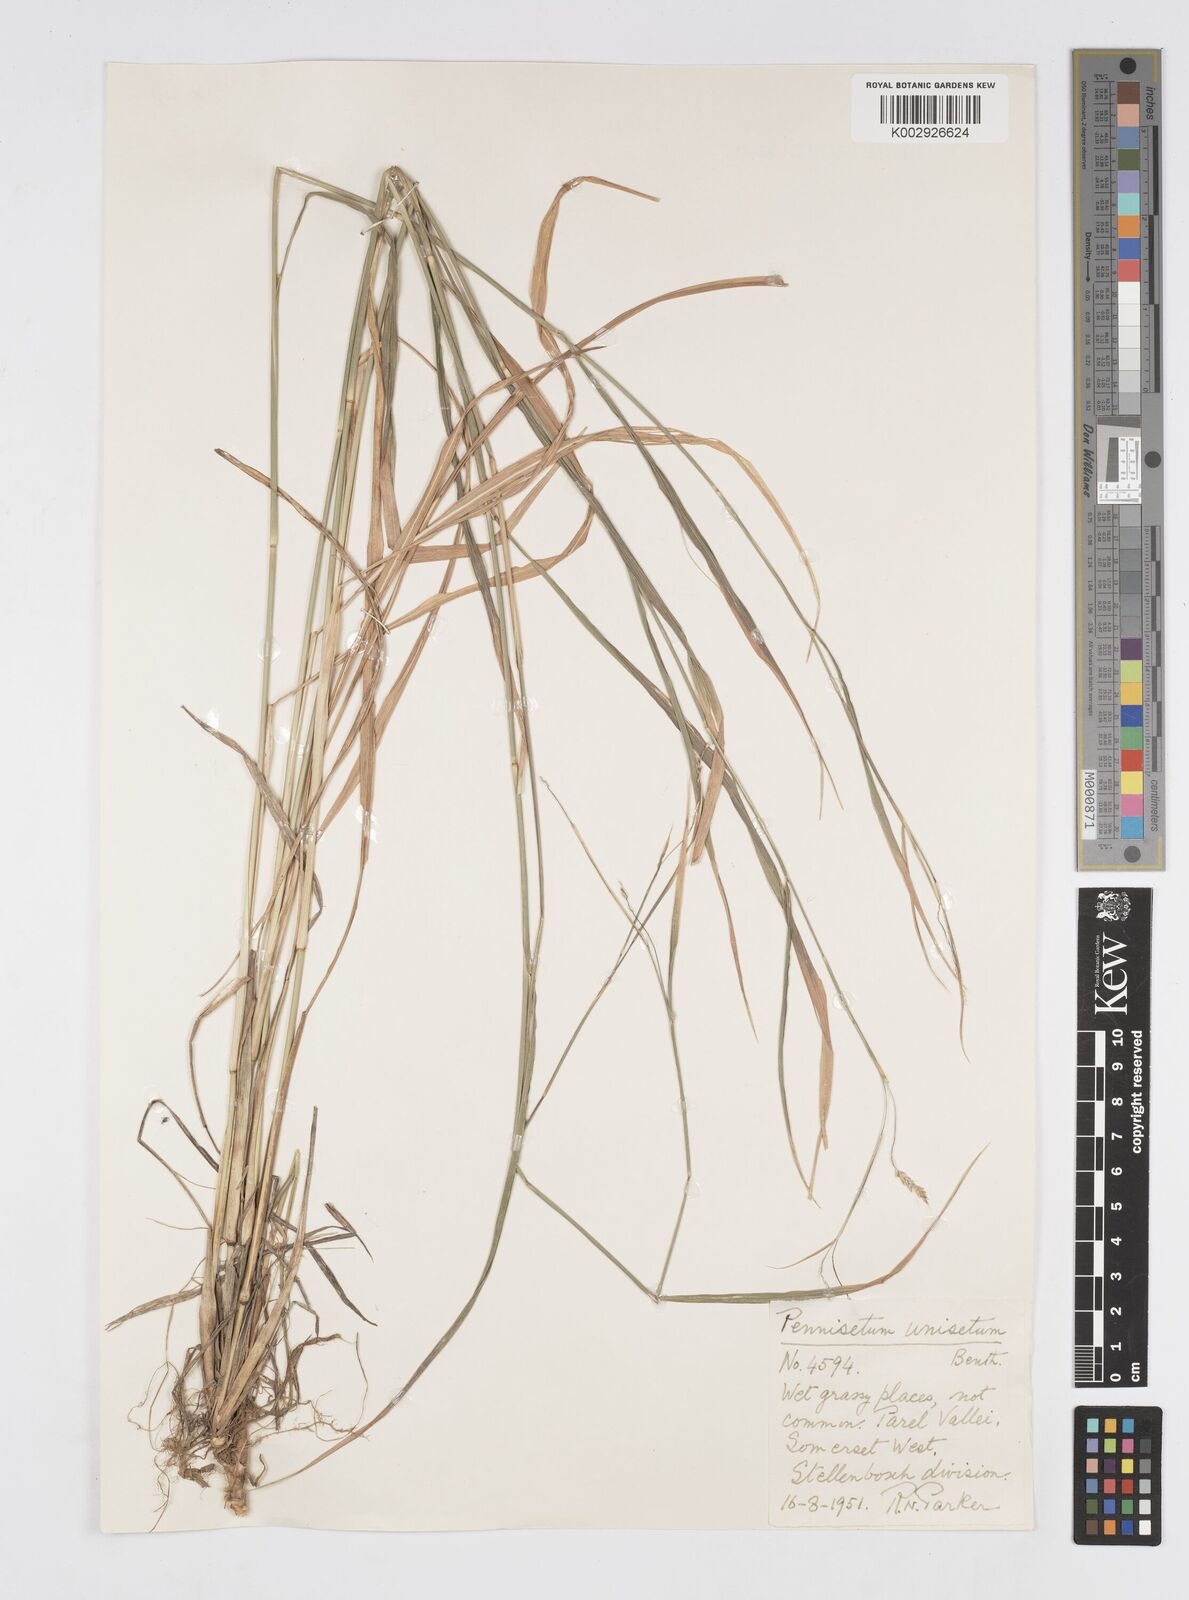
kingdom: Plantae
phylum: Tracheophyta
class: Liliopsida
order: Poales
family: Poaceae
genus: Cenchrus
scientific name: Cenchrus unisetus
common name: Natal grass
